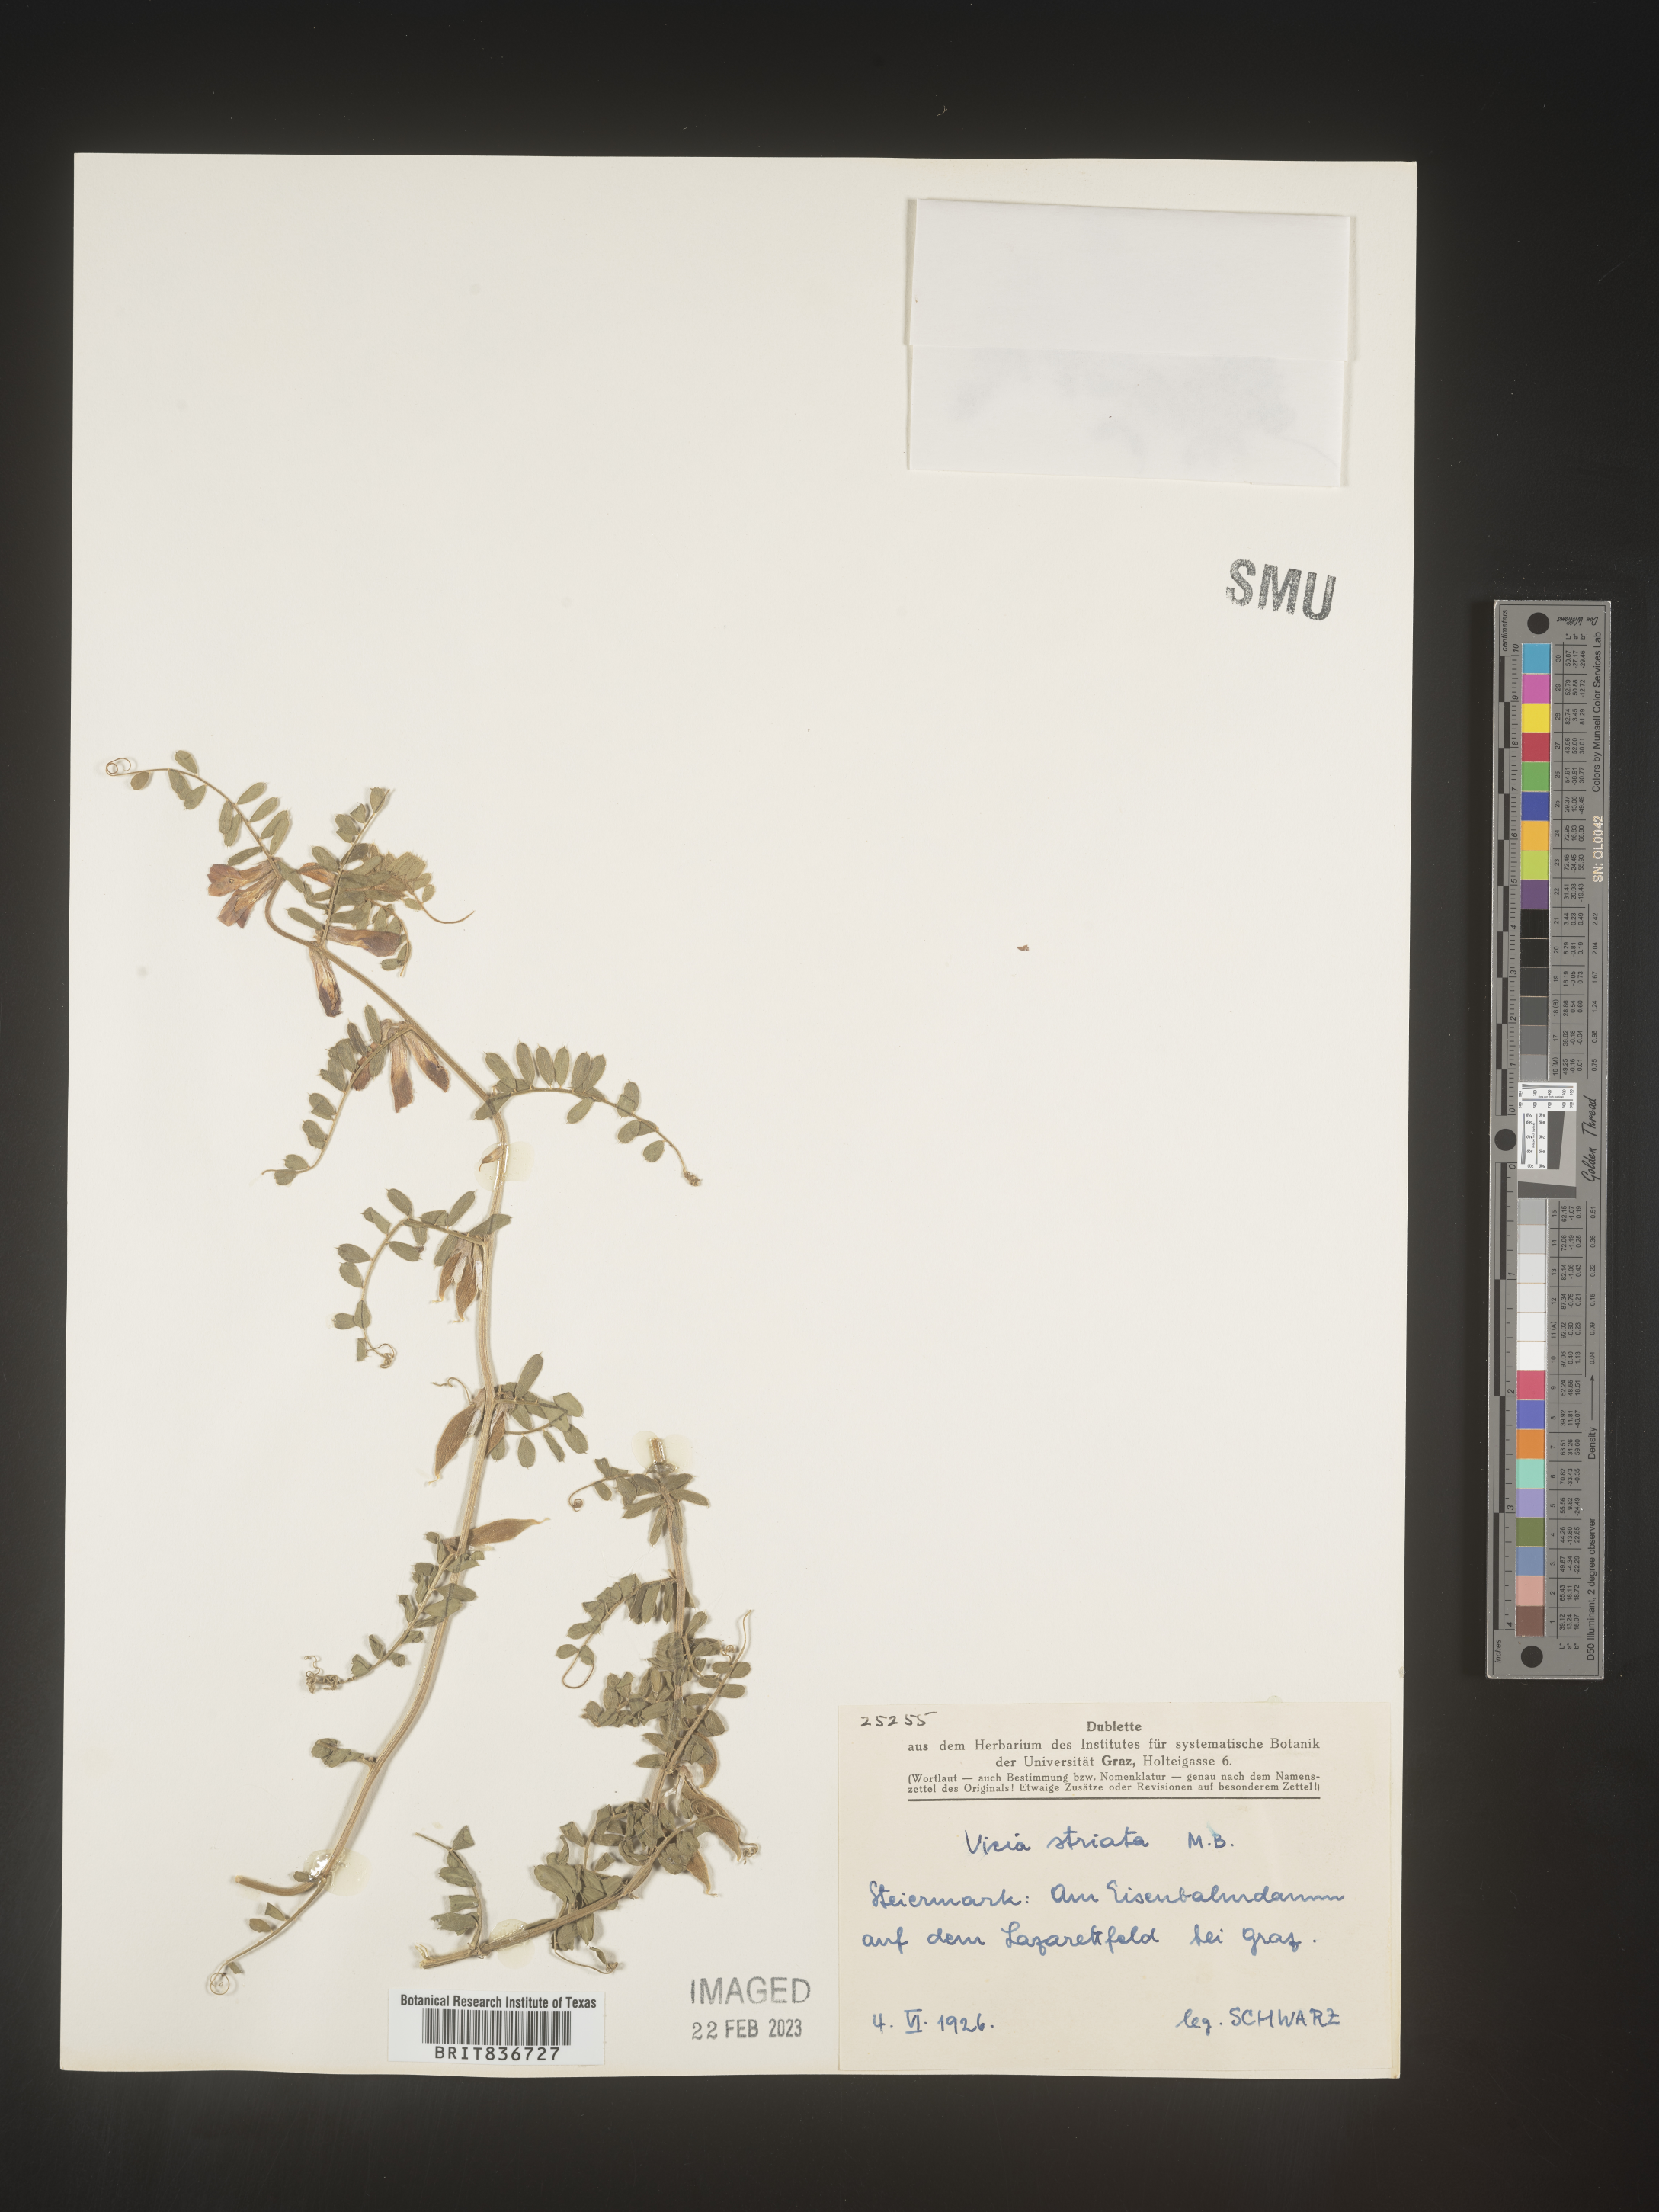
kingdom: Plantae
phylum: Tracheophyta
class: Magnoliopsida
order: Fabales
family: Fabaceae
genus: Vicia
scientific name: Vicia
